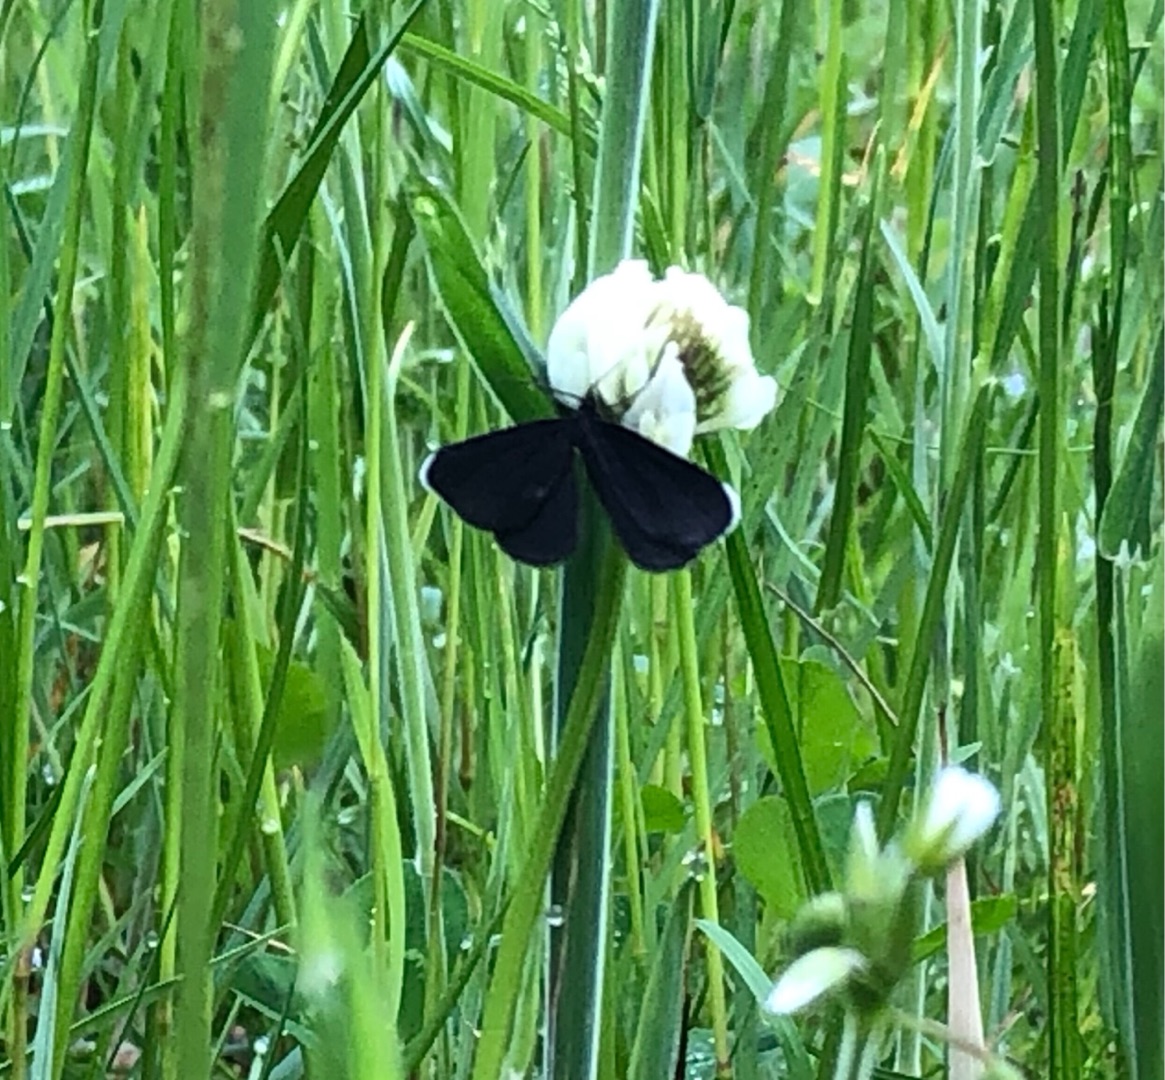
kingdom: Animalia
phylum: Arthropoda
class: Insecta
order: Lepidoptera
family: Geometridae
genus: Odezia
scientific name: Odezia atrata
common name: Sort måler
